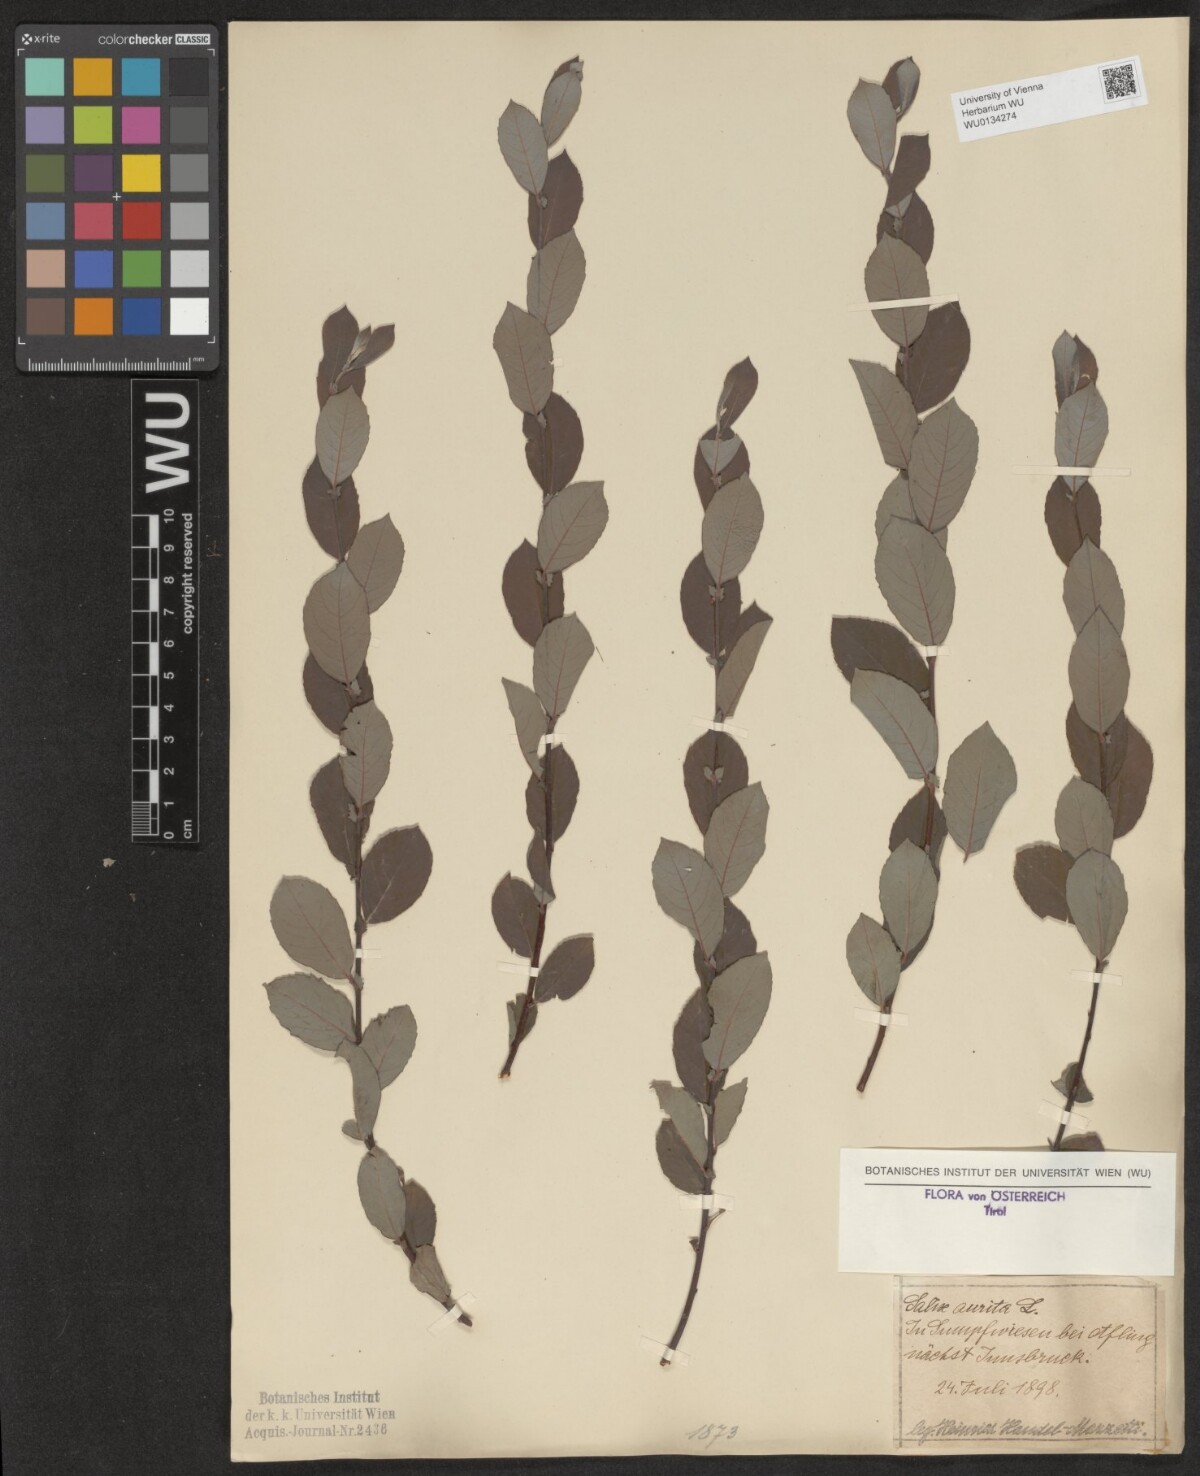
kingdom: Plantae
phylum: Tracheophyta
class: Magnoliopsida
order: Malpighiales
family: Salicaceae
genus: Salix
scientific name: Salix aurita
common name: Eared willow
